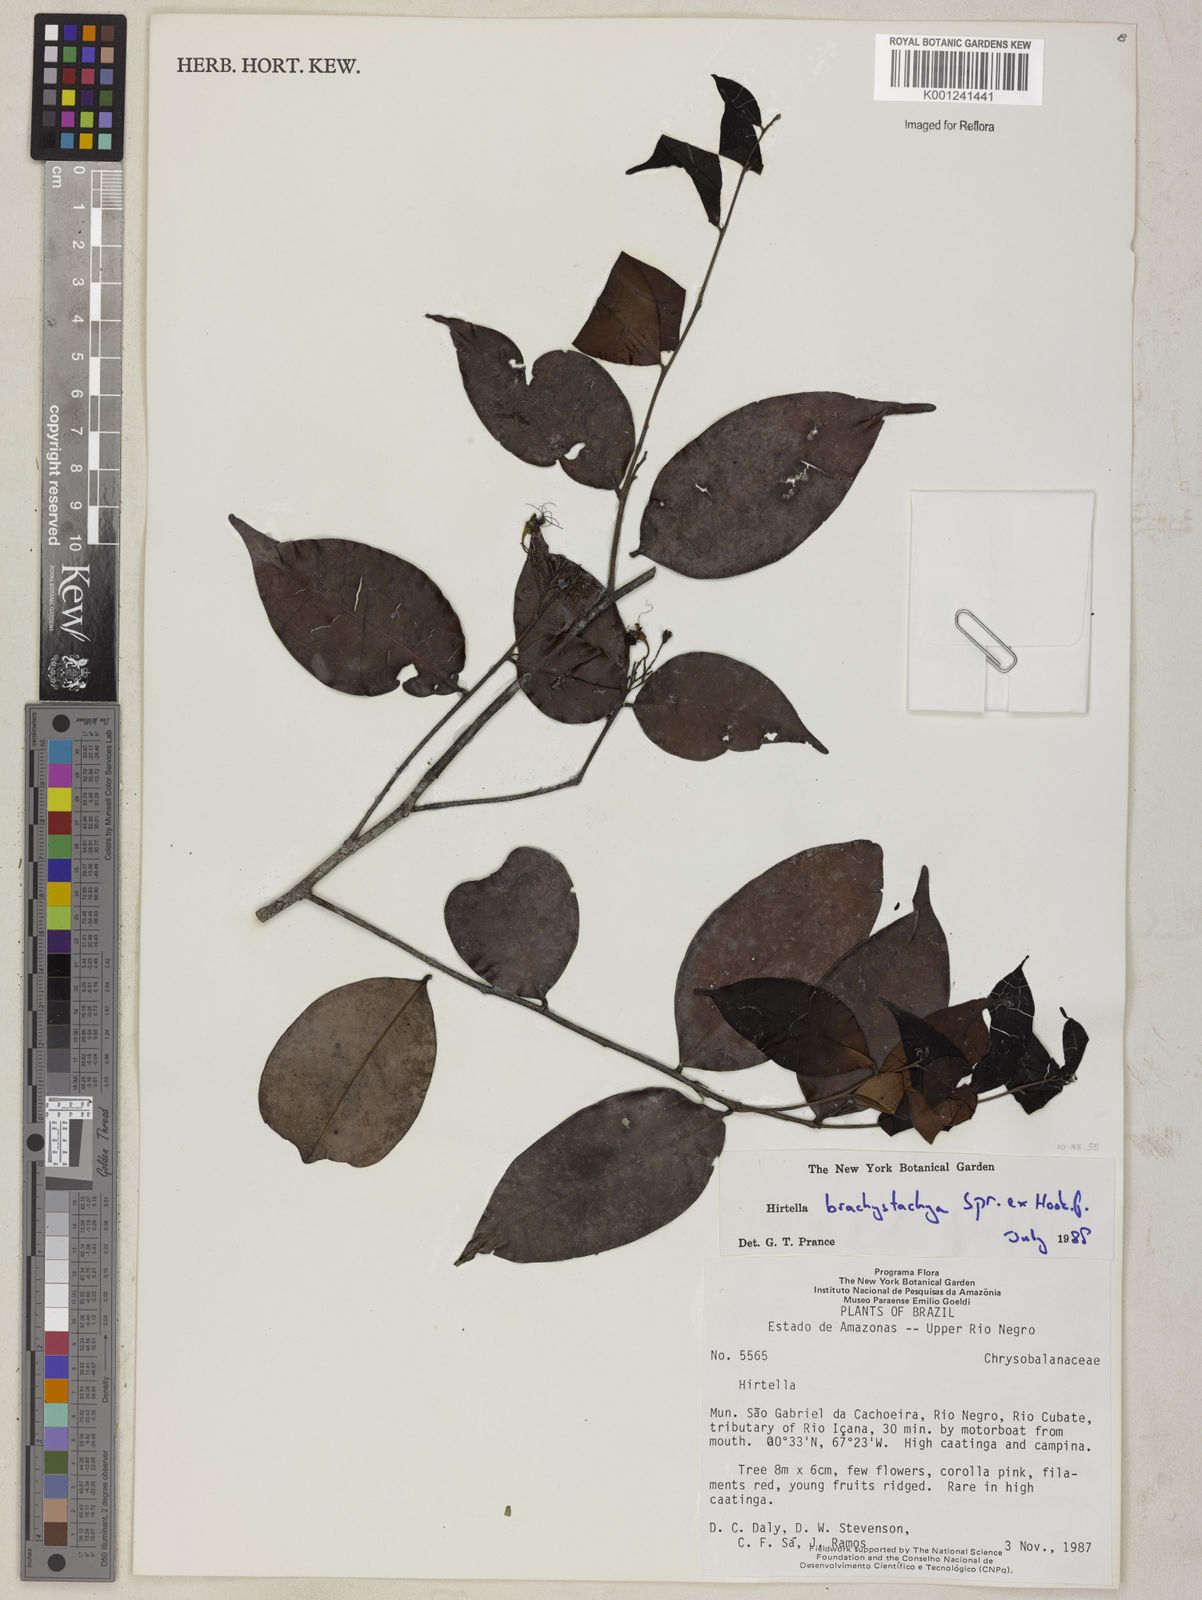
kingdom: Plantae
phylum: Tracheophyta
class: Magnoliopsida
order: Malpighiales
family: Chrysobalanaceae
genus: Hirtella
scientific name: Hirtella brachystachya
